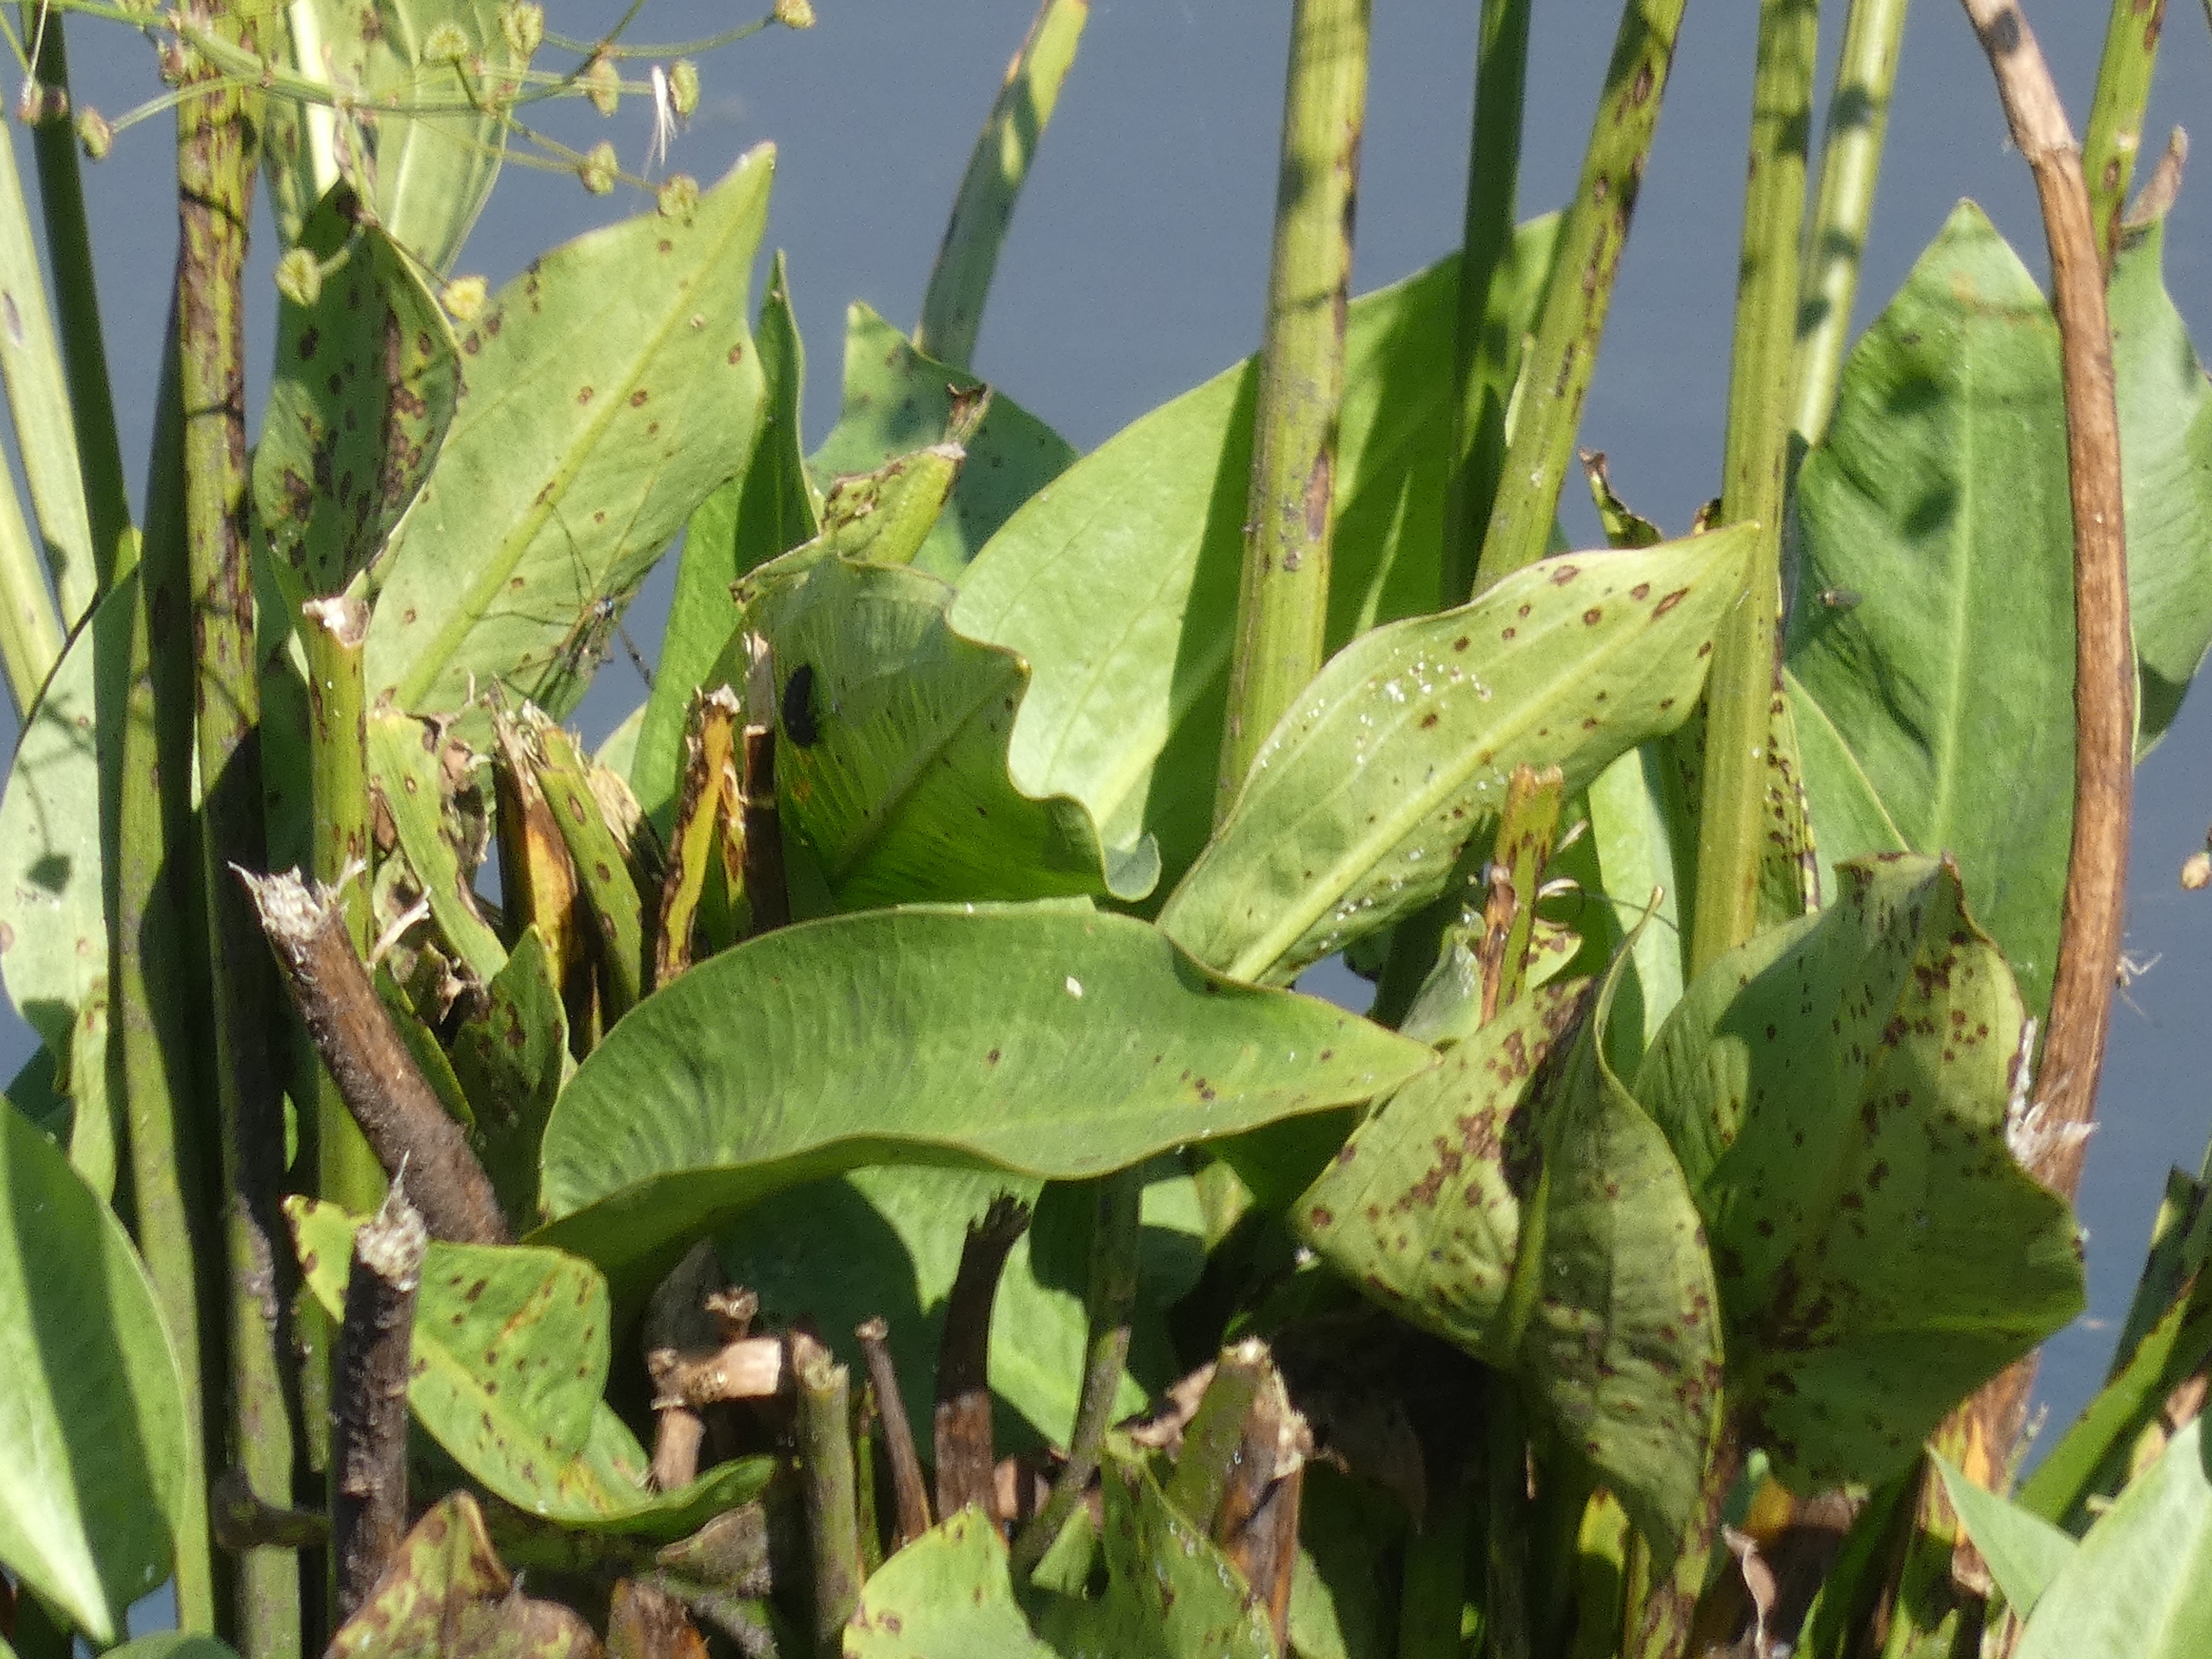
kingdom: Plantae
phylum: Tracheophyta
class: Liliopsida
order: Alismatales
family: Alismataceae
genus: Alisma
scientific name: Alisma plantago-aquatica
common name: Vejbred-skeblad
